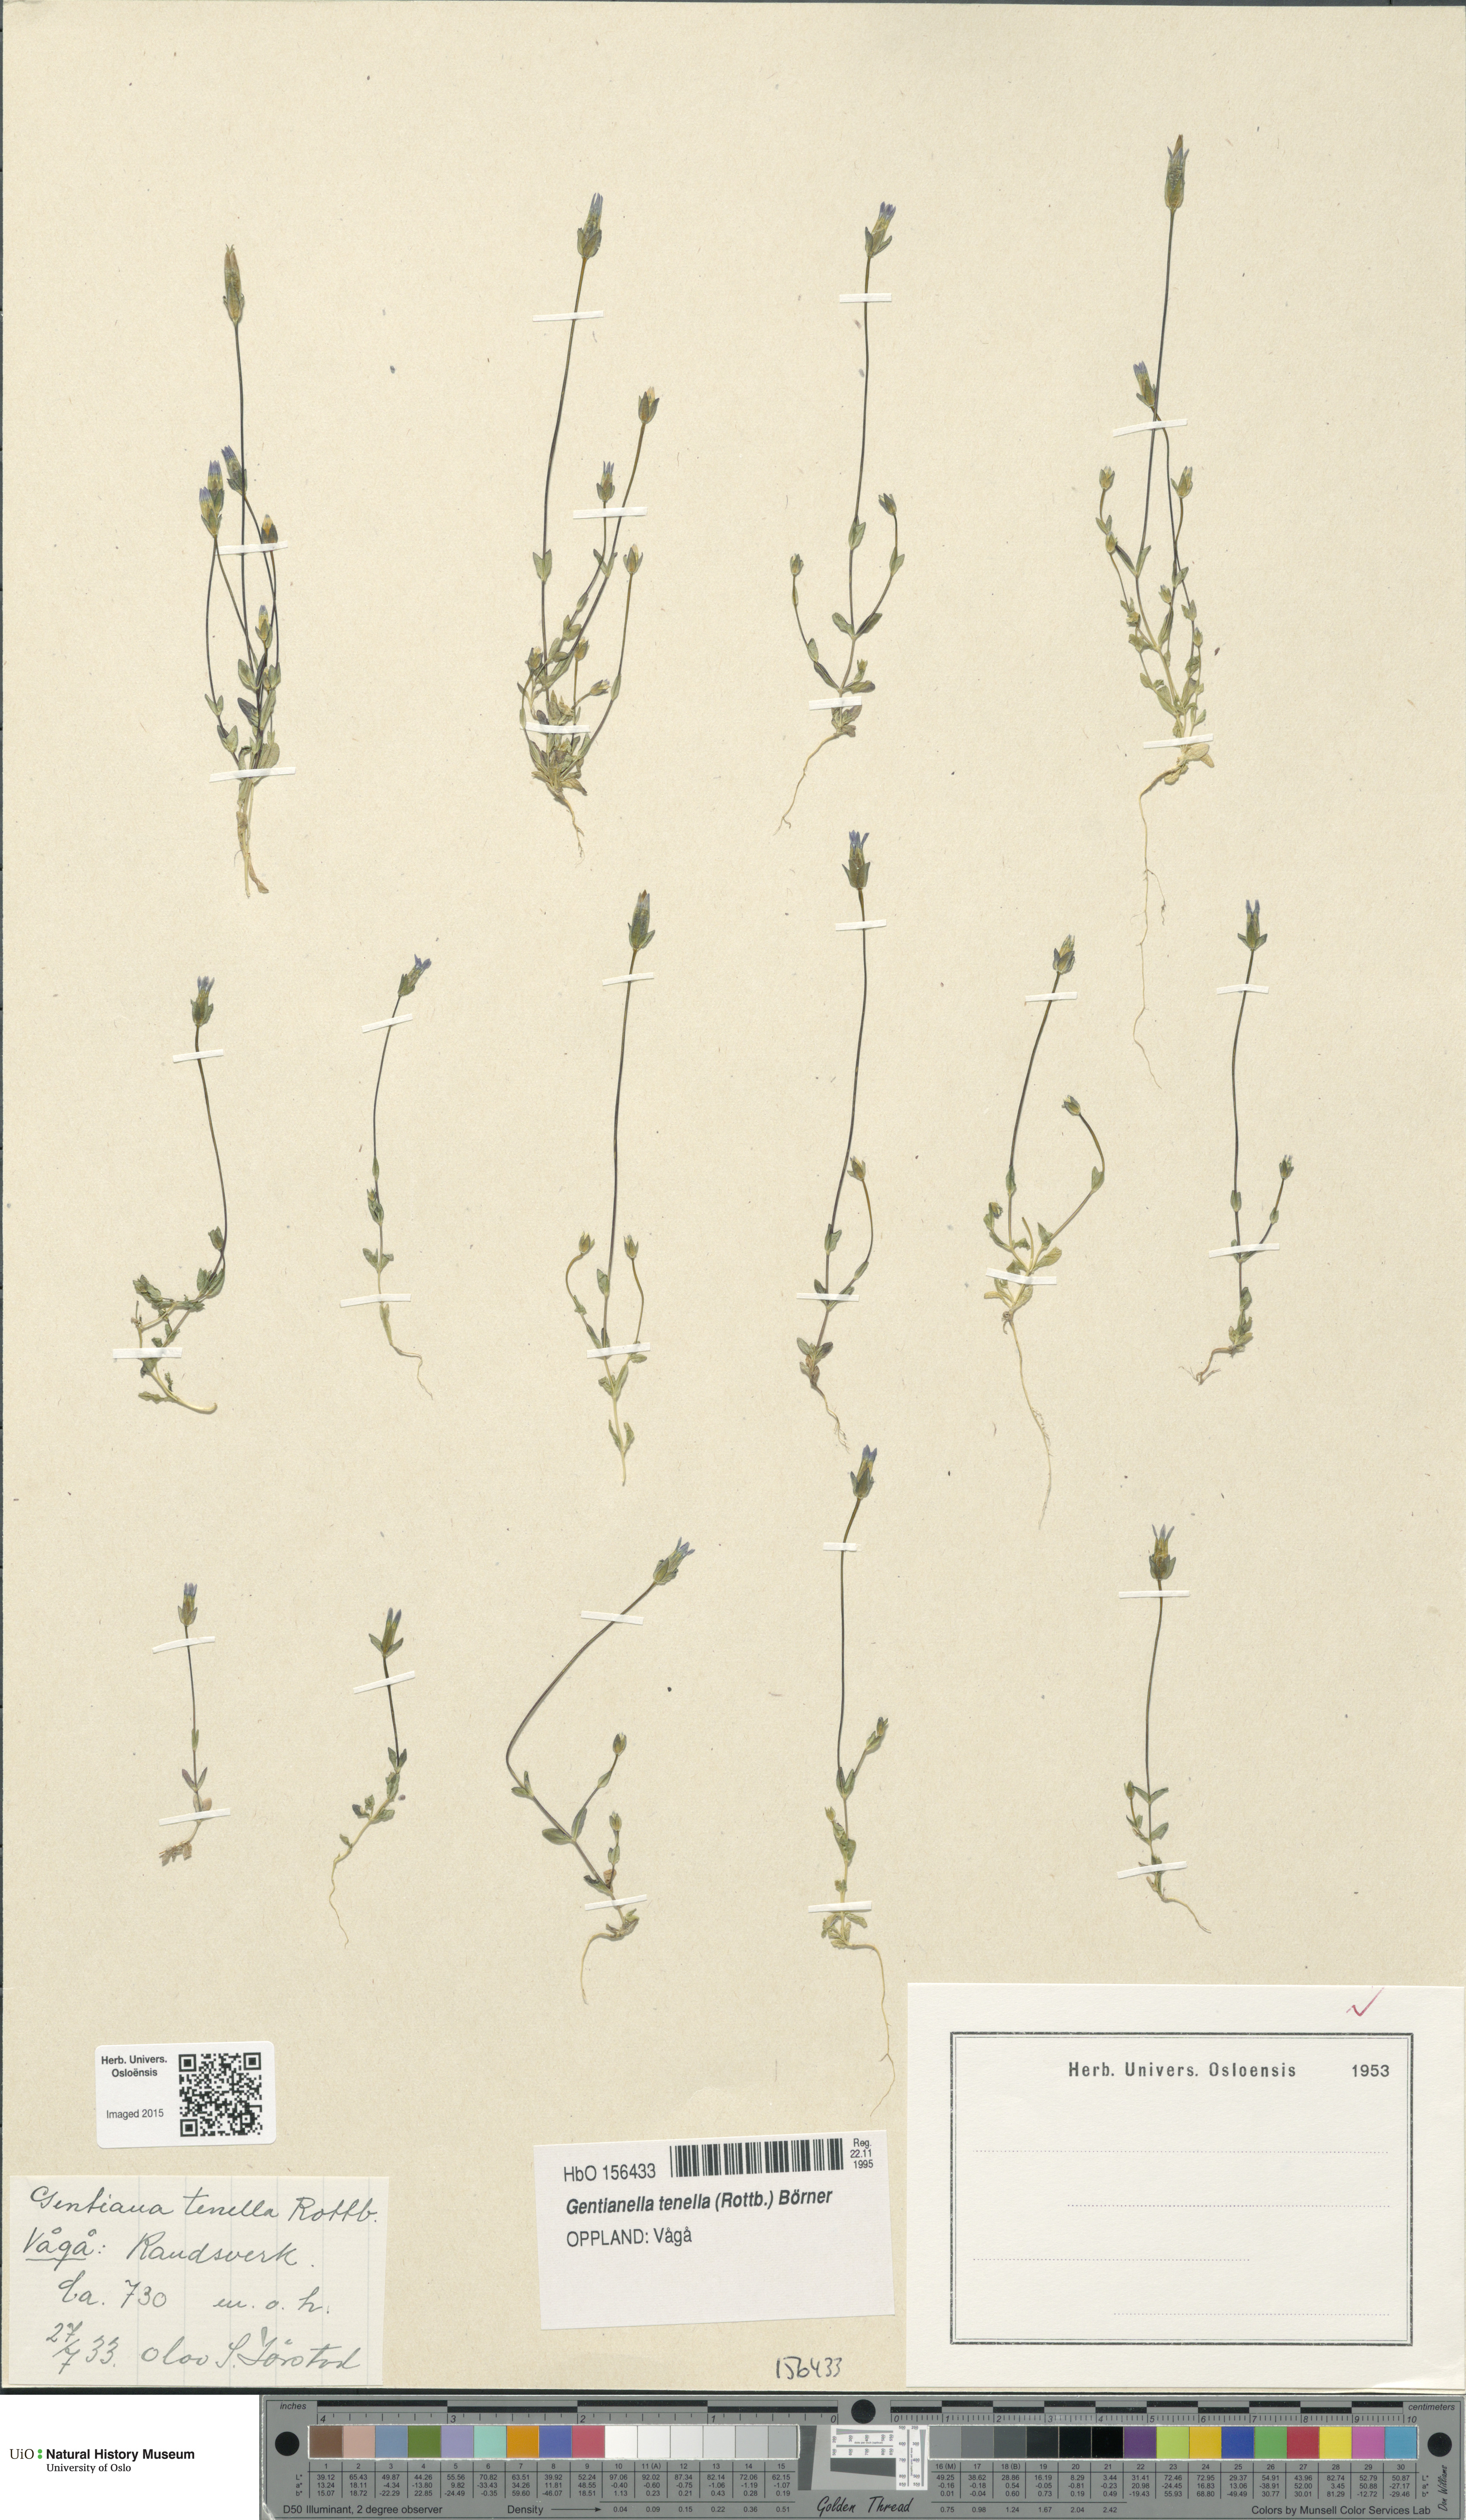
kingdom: Plantae
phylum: Tracheophyta
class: Magnoliopsida
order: Gentianales
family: Gentianaceae
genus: Comastoma
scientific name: Comastoma tenellum
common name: Dane's dwarf gentian
